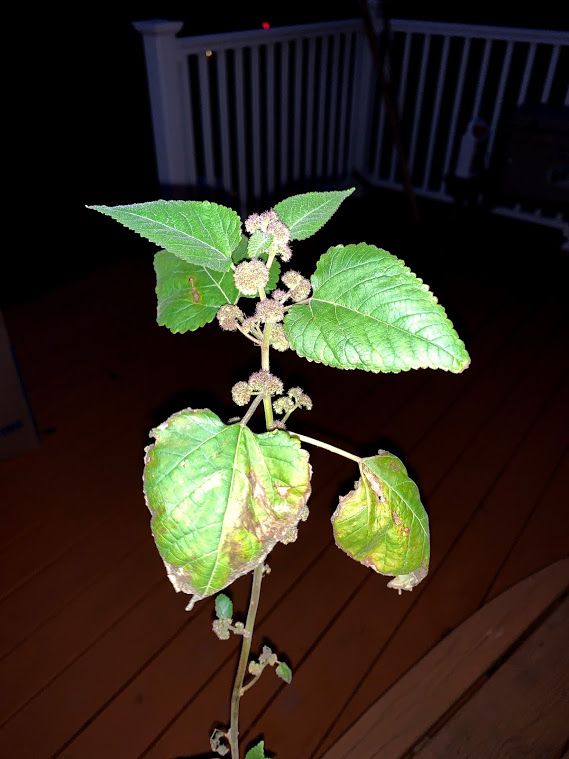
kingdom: Plantae
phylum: Tracheophyta
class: Magnoliopsida
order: Rosales
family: Moraceae
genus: Fatoua
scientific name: Fatoua villosa
